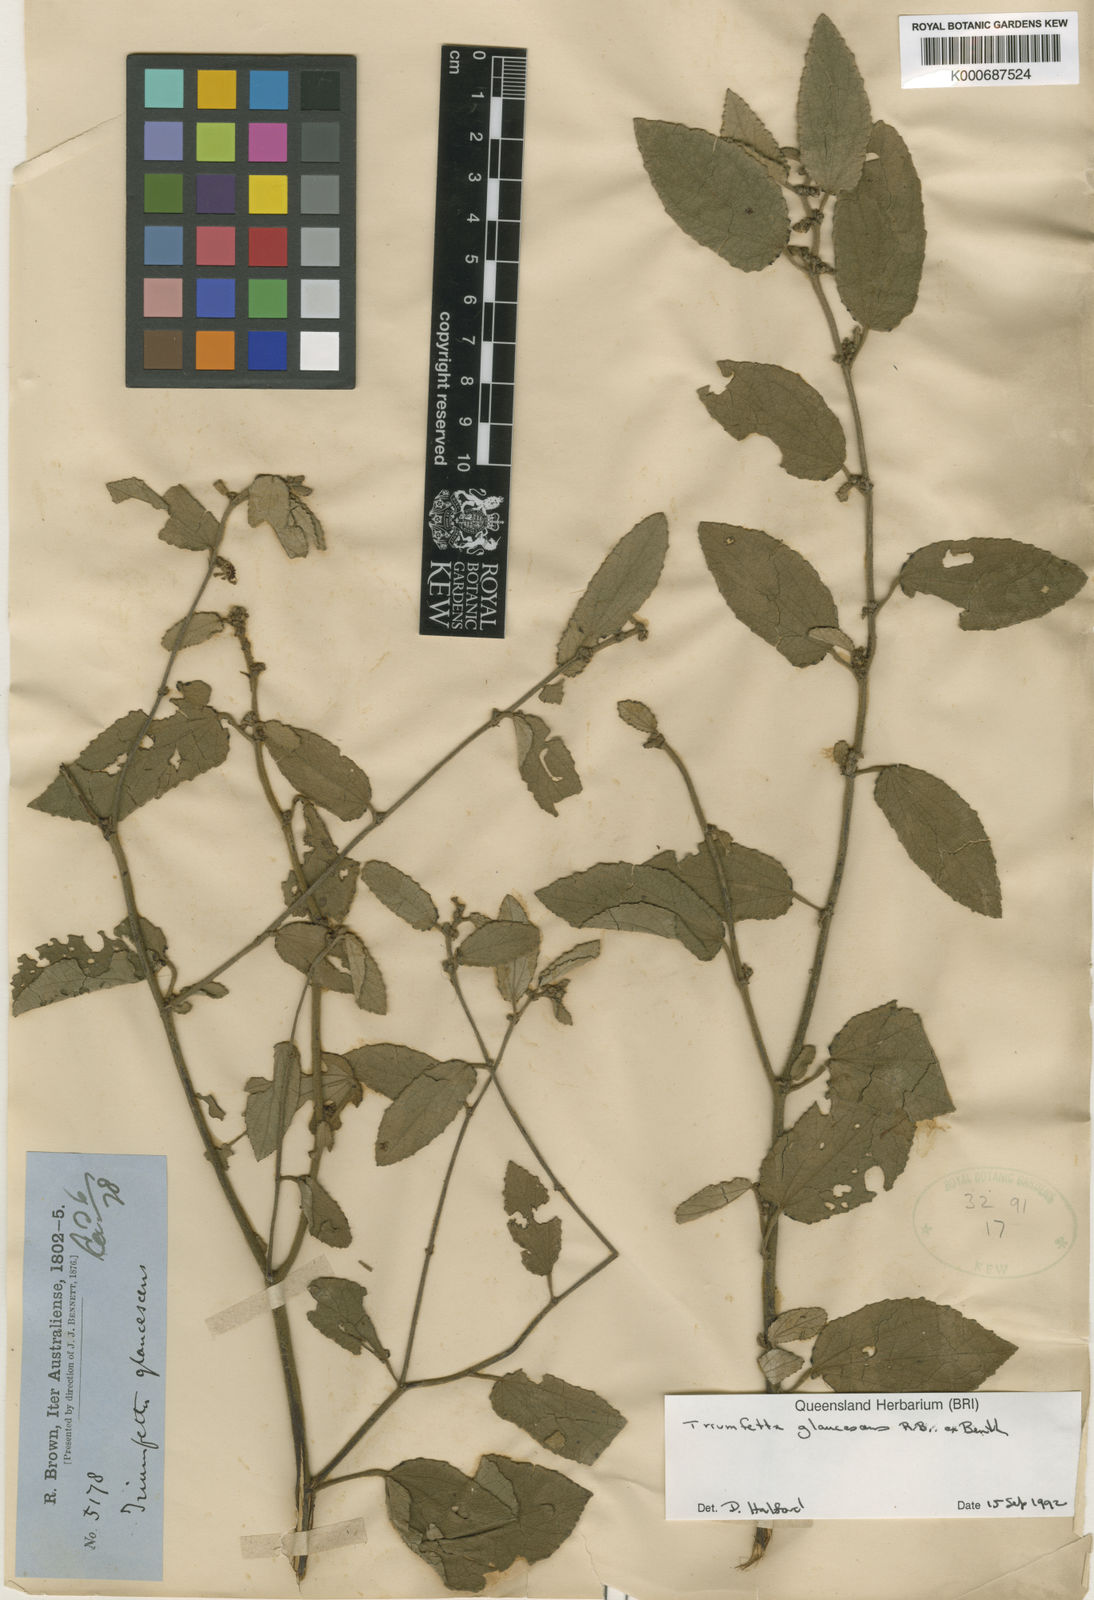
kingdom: Plantae
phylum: Tracheophyta
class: Magnoliopsida
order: Malvales
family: Malvaceae
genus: Triumfetta
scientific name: Triumfetta glaucescens
